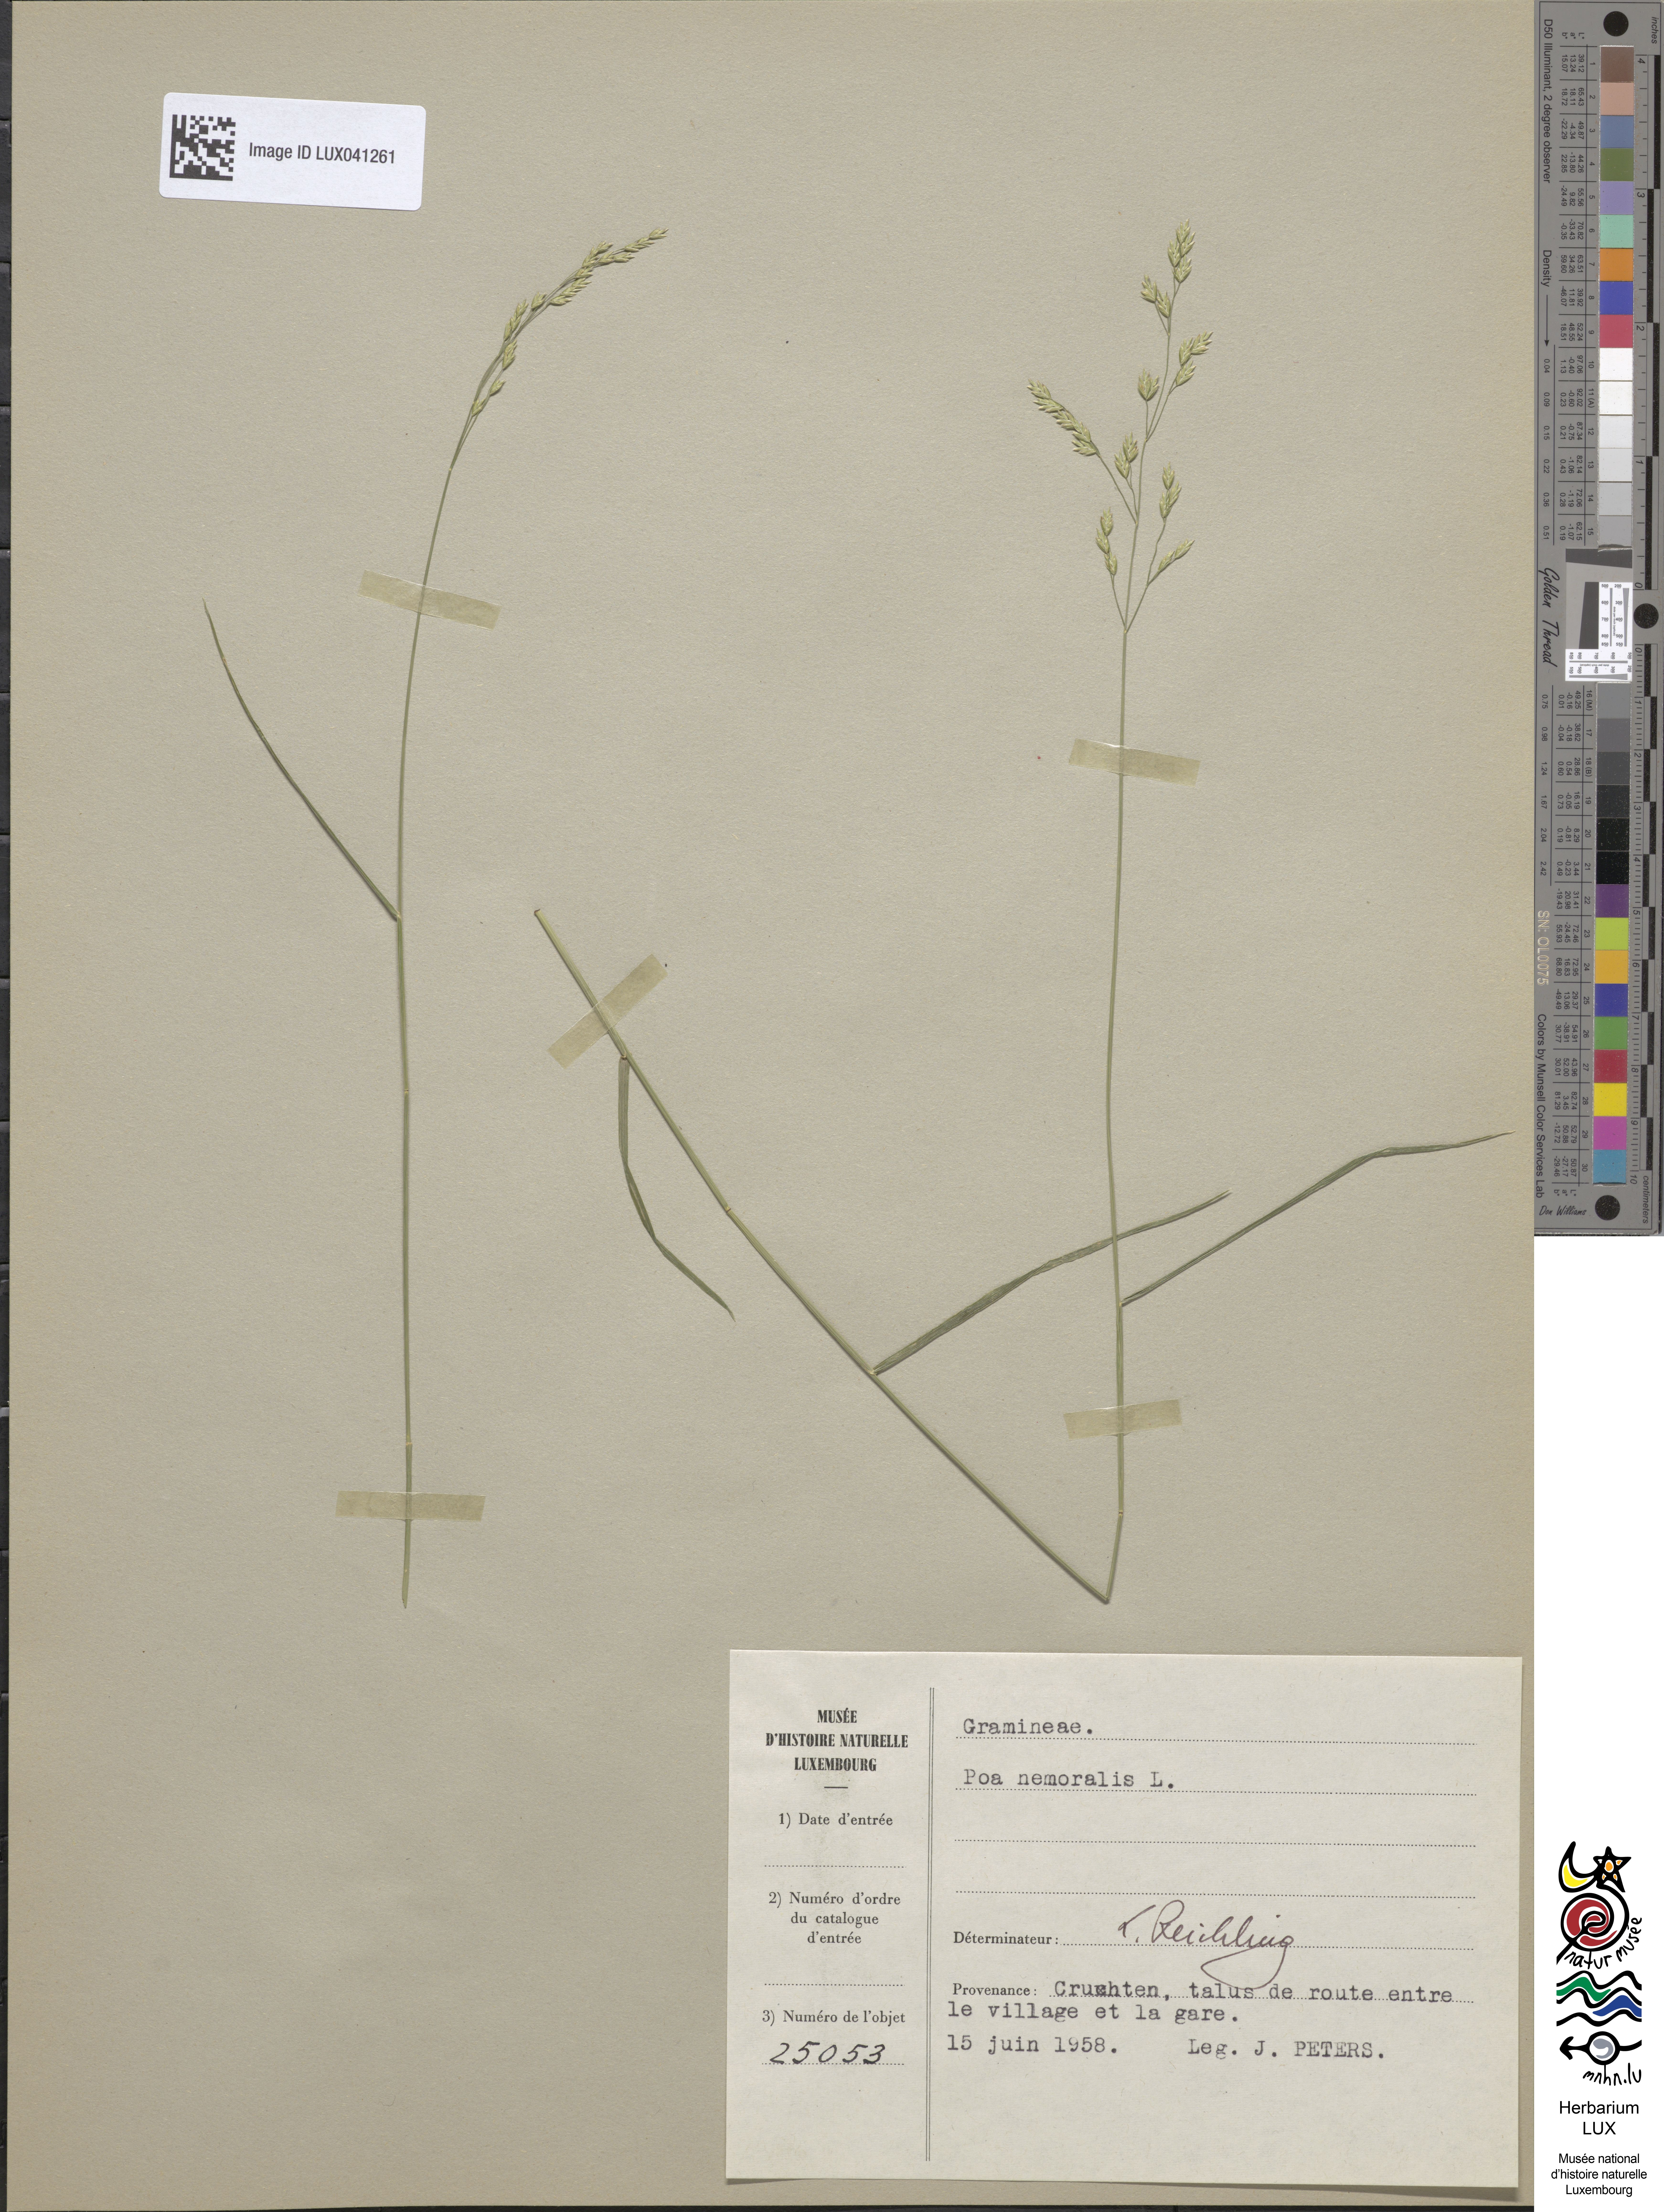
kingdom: Plantae
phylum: Tracheophyta
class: Liliopsida
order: Poales
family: Poaceae
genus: Poa
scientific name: Poa nemoralis
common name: Wood bluegrass
